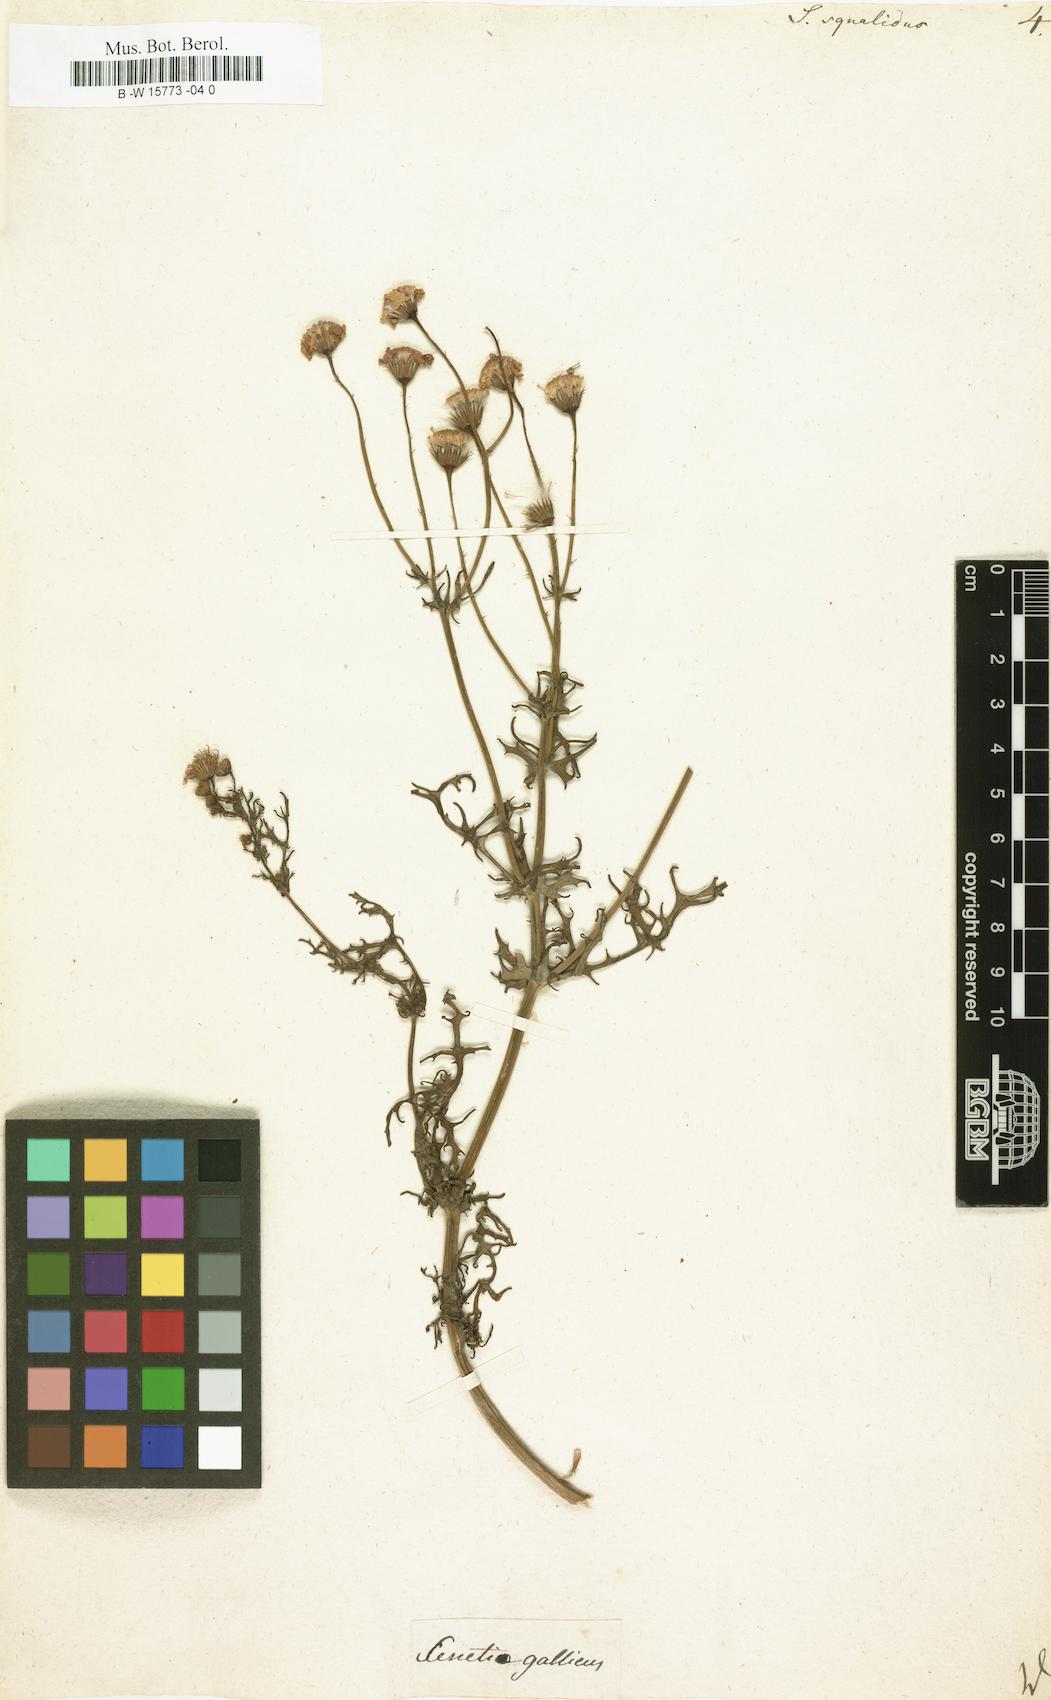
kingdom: Plantae
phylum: Tracheophyta
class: Magnoliopsida
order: Asterales
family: Asteraceae
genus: Senecio
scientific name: Senecio squalidus
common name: Oxford ragwort
